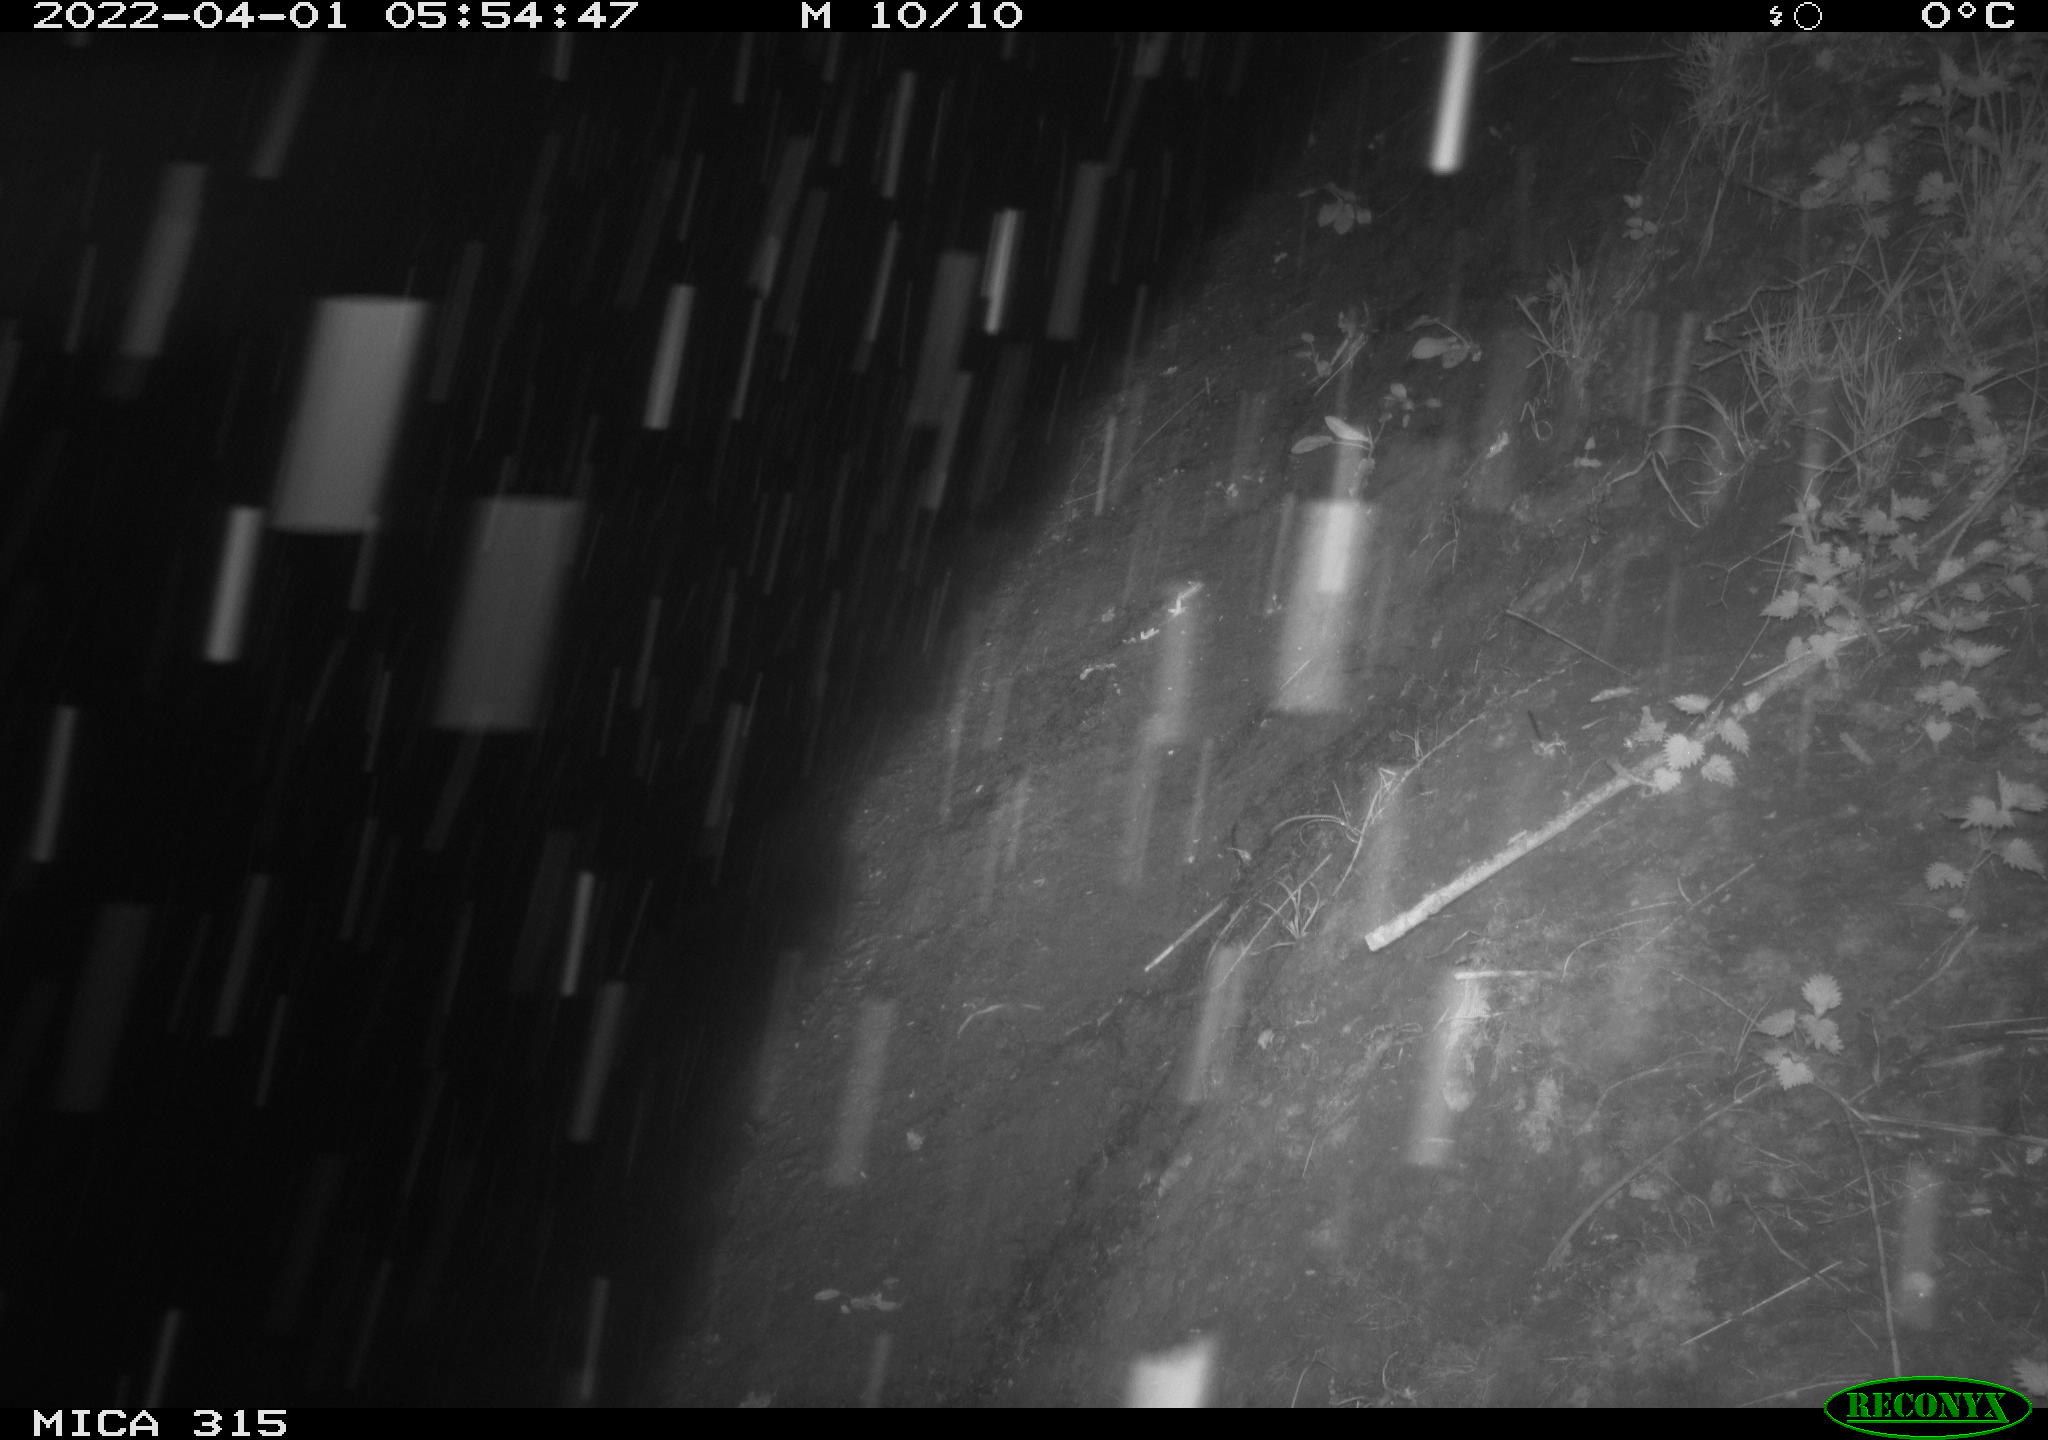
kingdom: Animalia
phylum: Chordata
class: Aves
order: Anseriformes
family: Anatidae
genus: Anas
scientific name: Anas platyrhynchos
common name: Mallard
